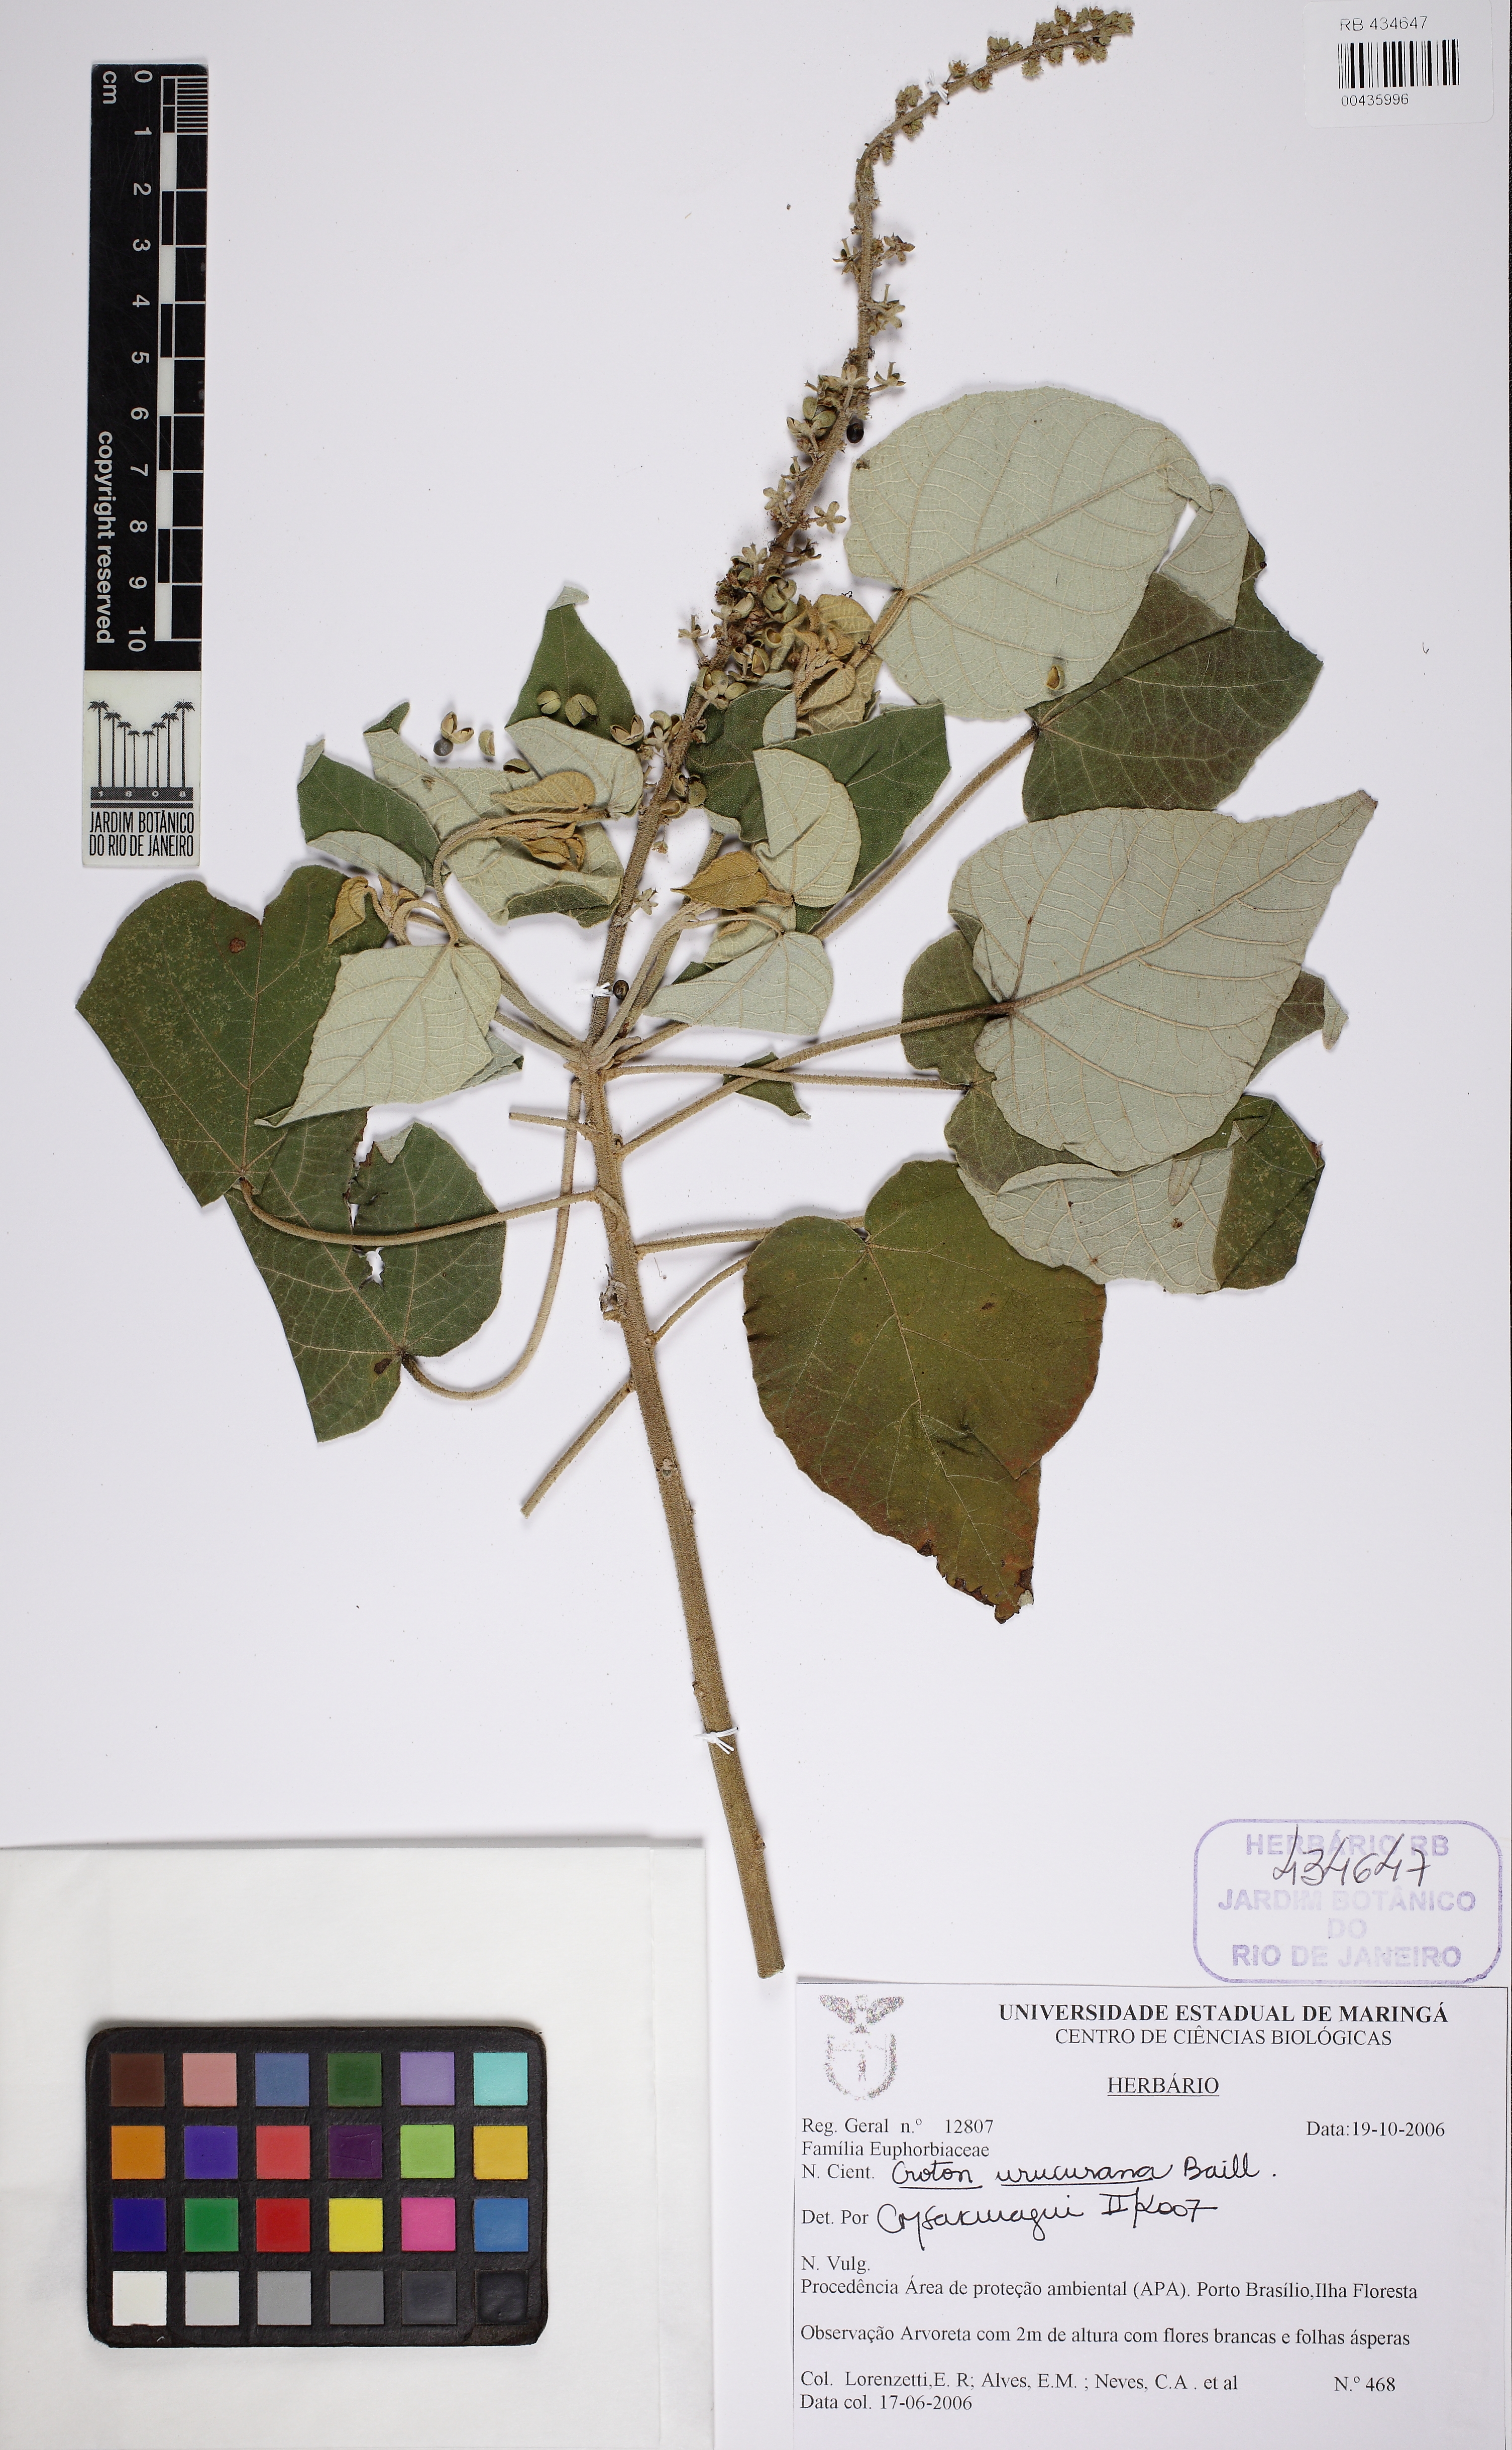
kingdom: Plantae
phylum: Tracheophyta
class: Magnoliopsida
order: Malpighiales
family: Euphorbiaceae
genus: Croton
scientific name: Croton urucurana
